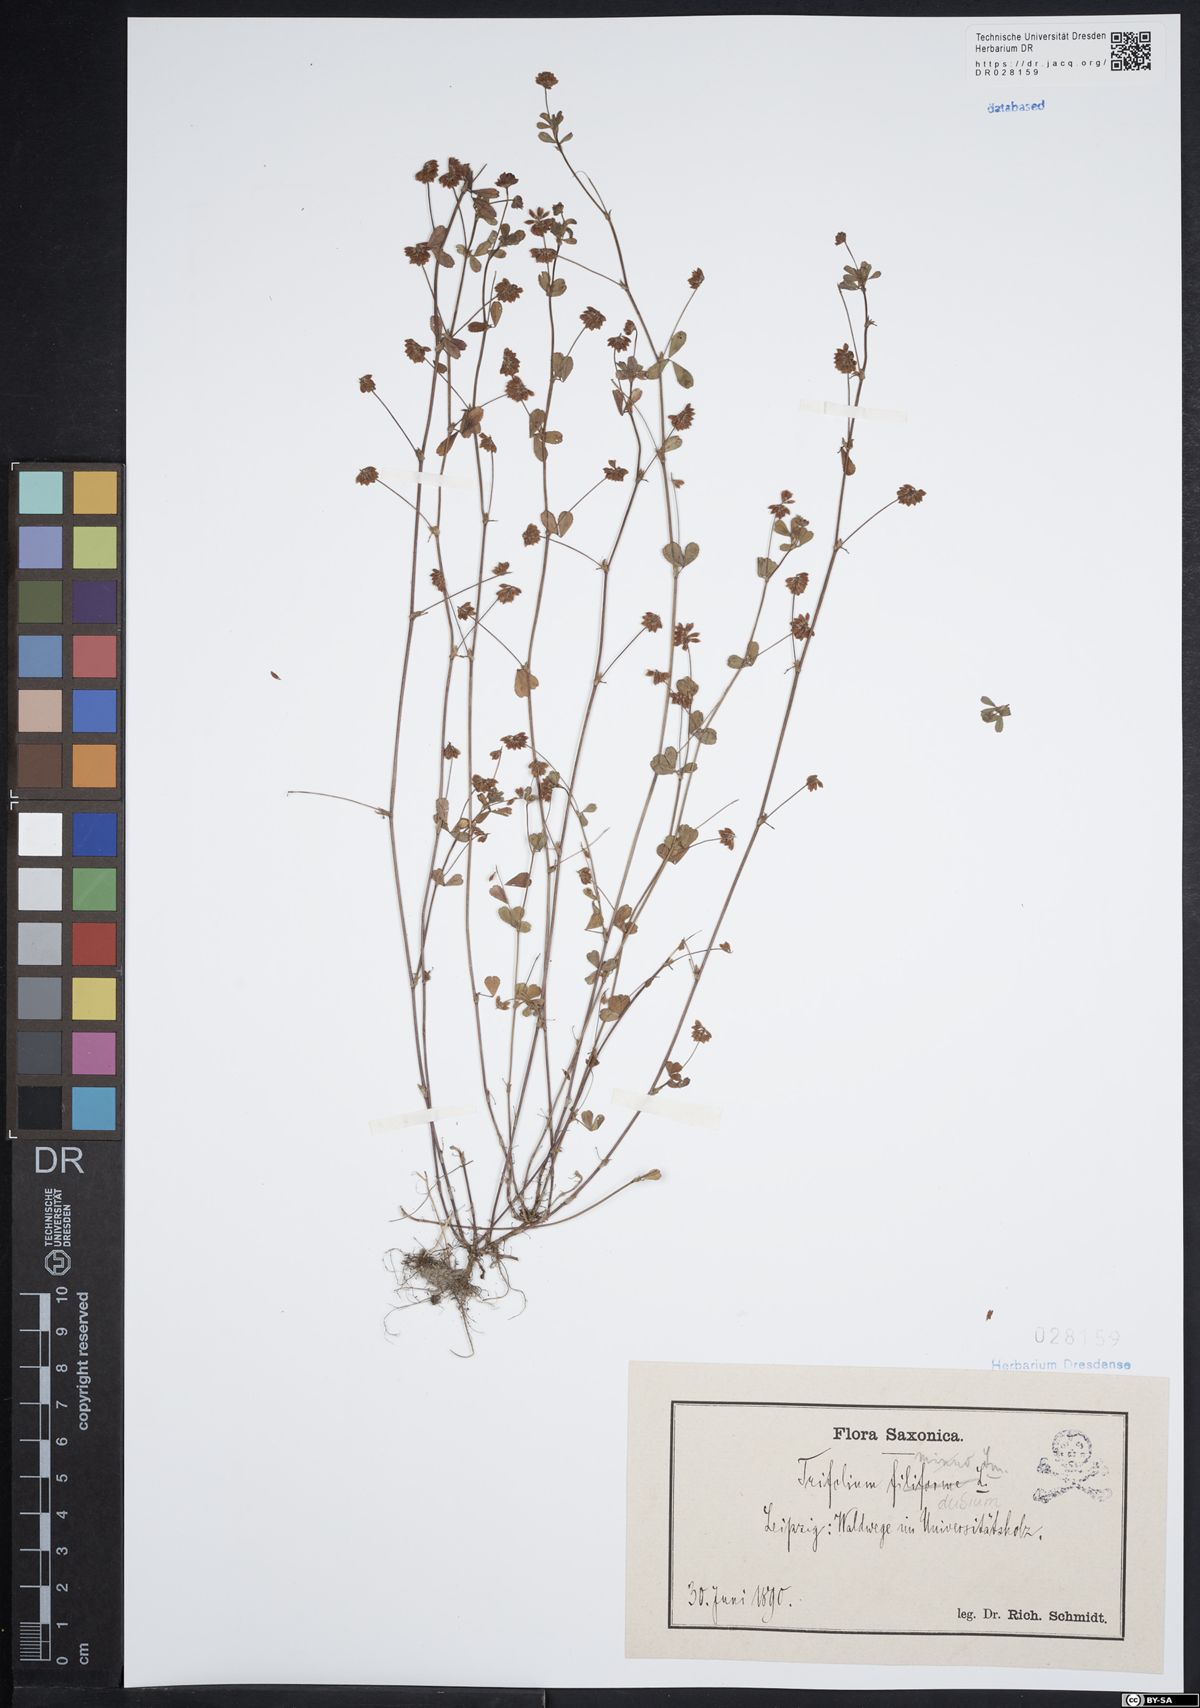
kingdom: Plantae
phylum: Tracheophyta
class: Magnoliopsida
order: Fabales
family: Fabaceae
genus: Trifolium
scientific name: Trifolium dubium
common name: Suckling clover
